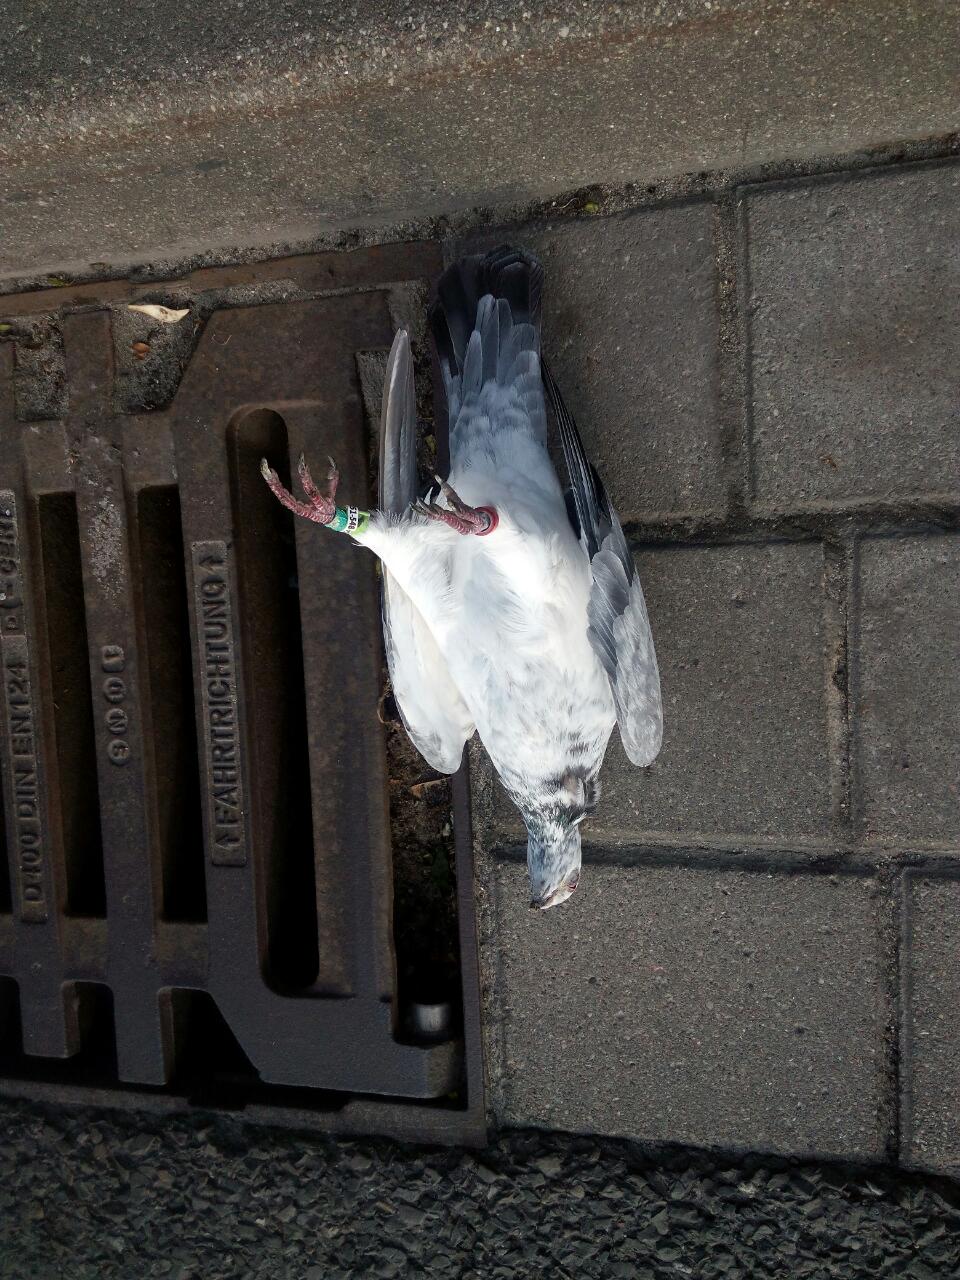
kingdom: Animalia
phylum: Chordata
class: Aves
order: Columbiformes
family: Columbidae
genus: Columba
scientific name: Columba livia
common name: Rock pigeon
